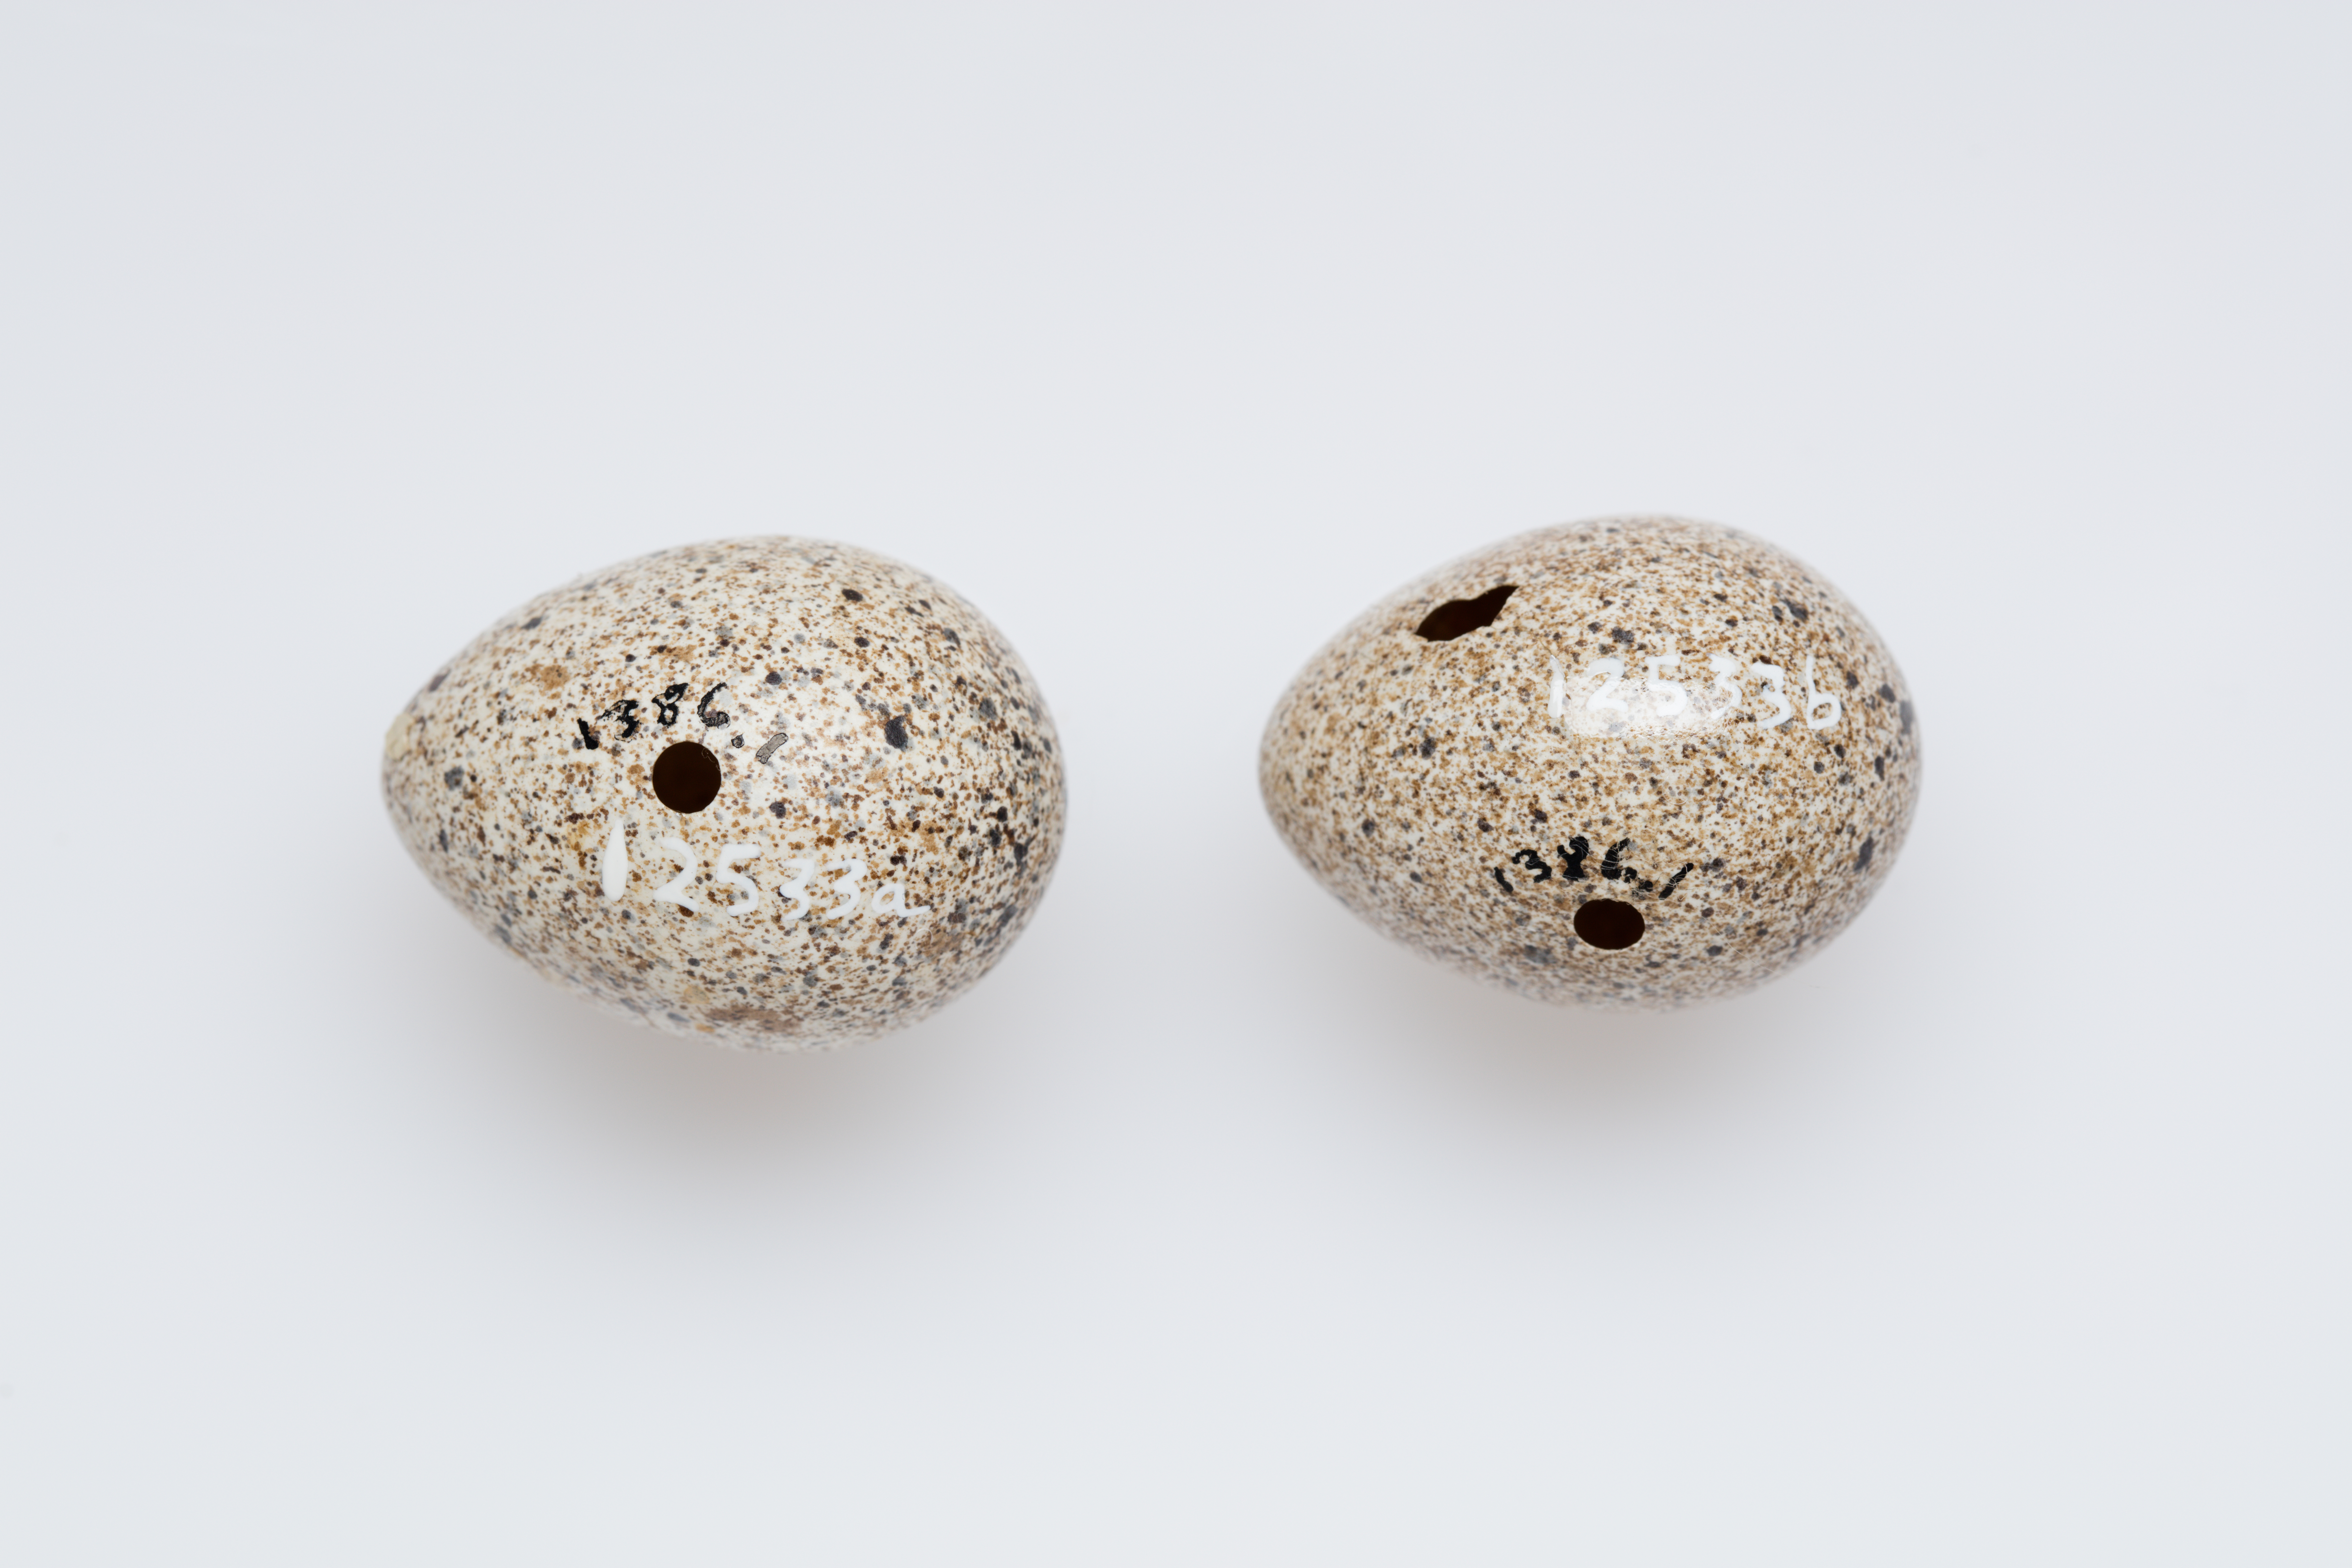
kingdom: Animalia
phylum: Chordata
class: Aves
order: Charadriiformes
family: Turnicidae
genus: Turnix
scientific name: Turnix varius
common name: Painted buttonquail
